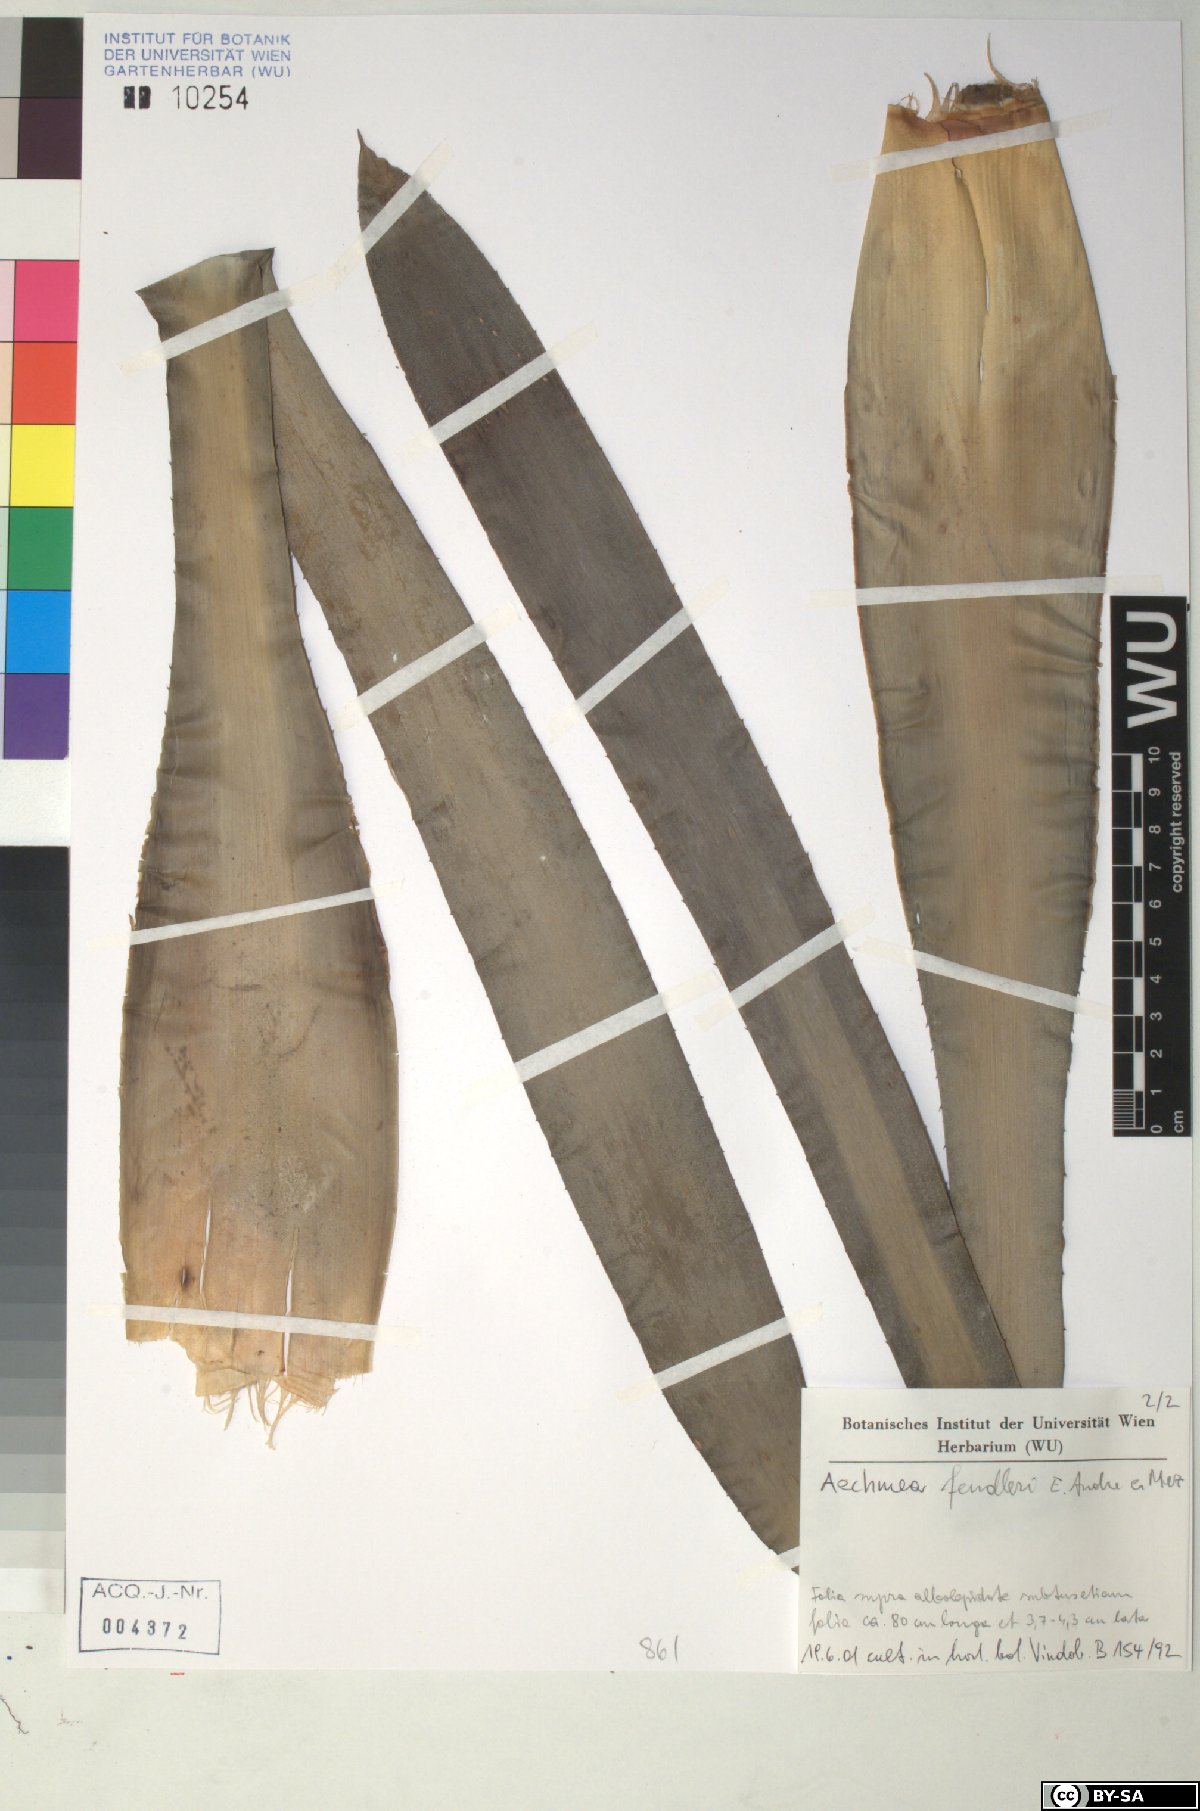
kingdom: Plantae
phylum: Tracheophyta
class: Liliopsida
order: Poales
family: Bromeliaceae
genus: Aechmea
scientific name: Aechmea fendleri
